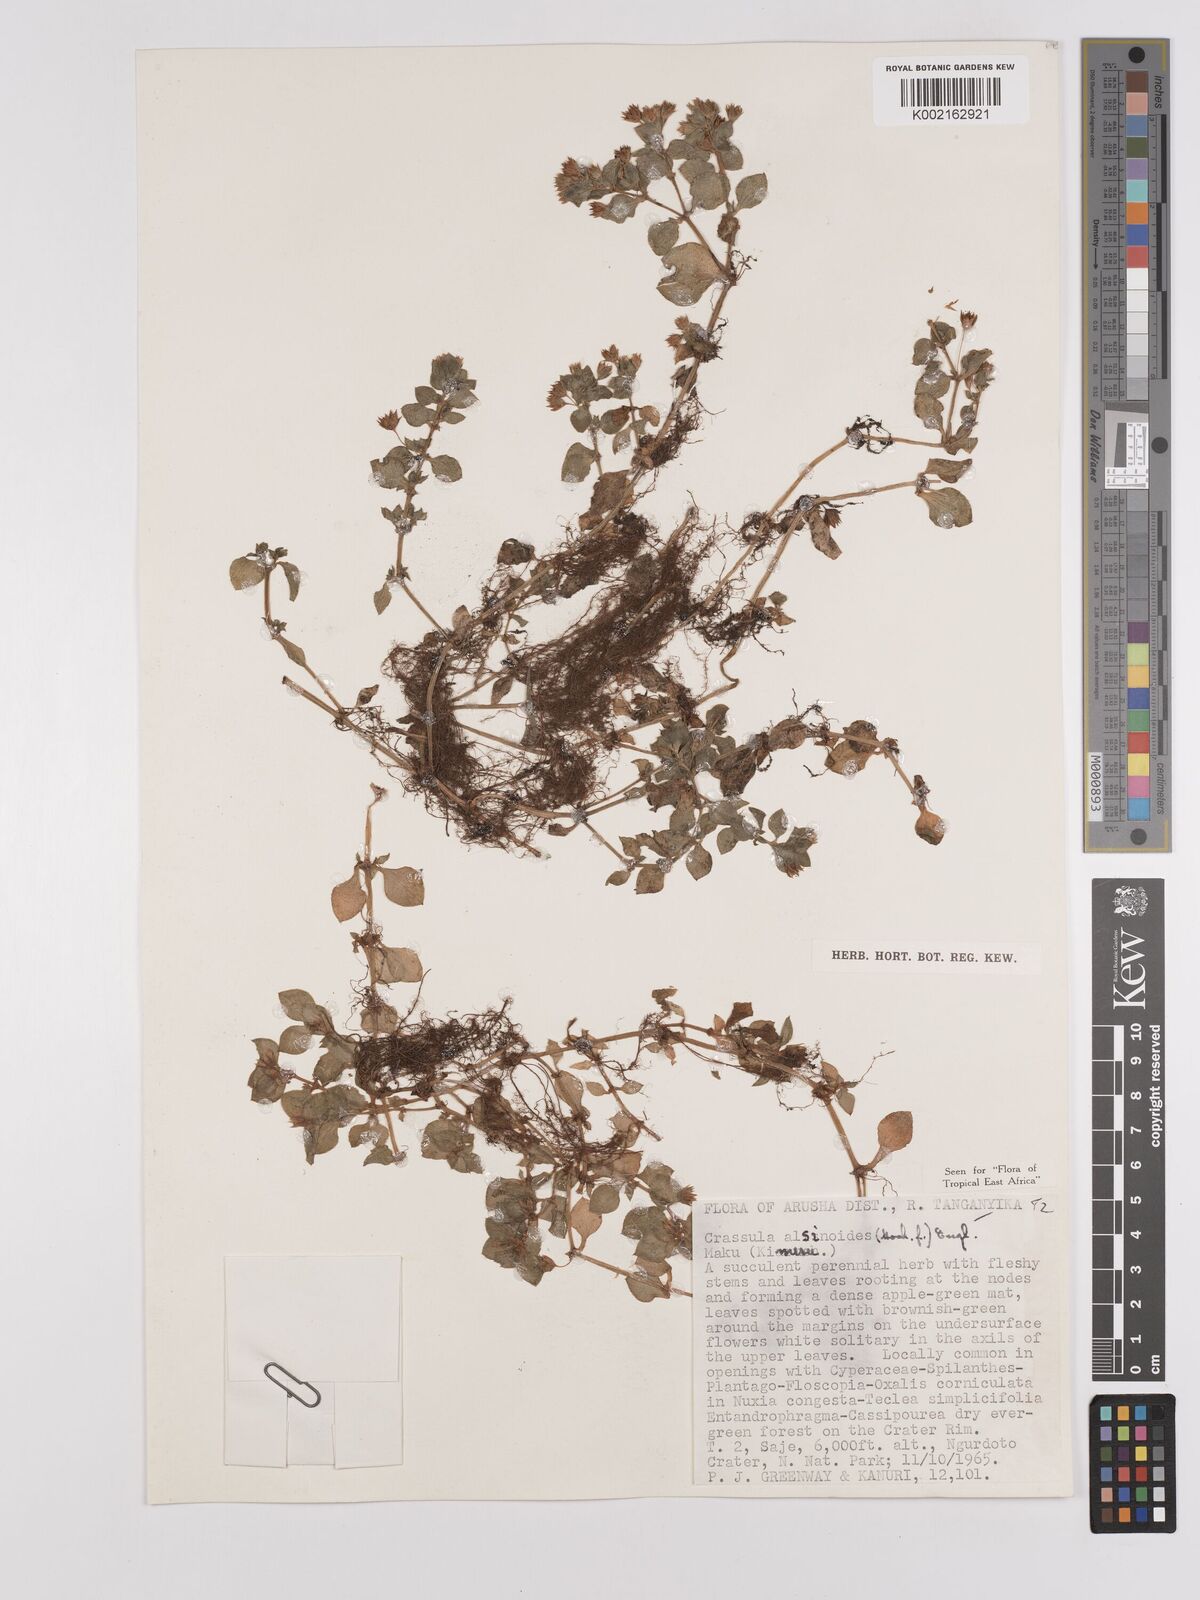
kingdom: Plantae
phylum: Tracheophyta
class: Magnoliopsida
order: Saxifragales
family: Crassulaceae
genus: Crassula
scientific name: Crassula alsinoides
